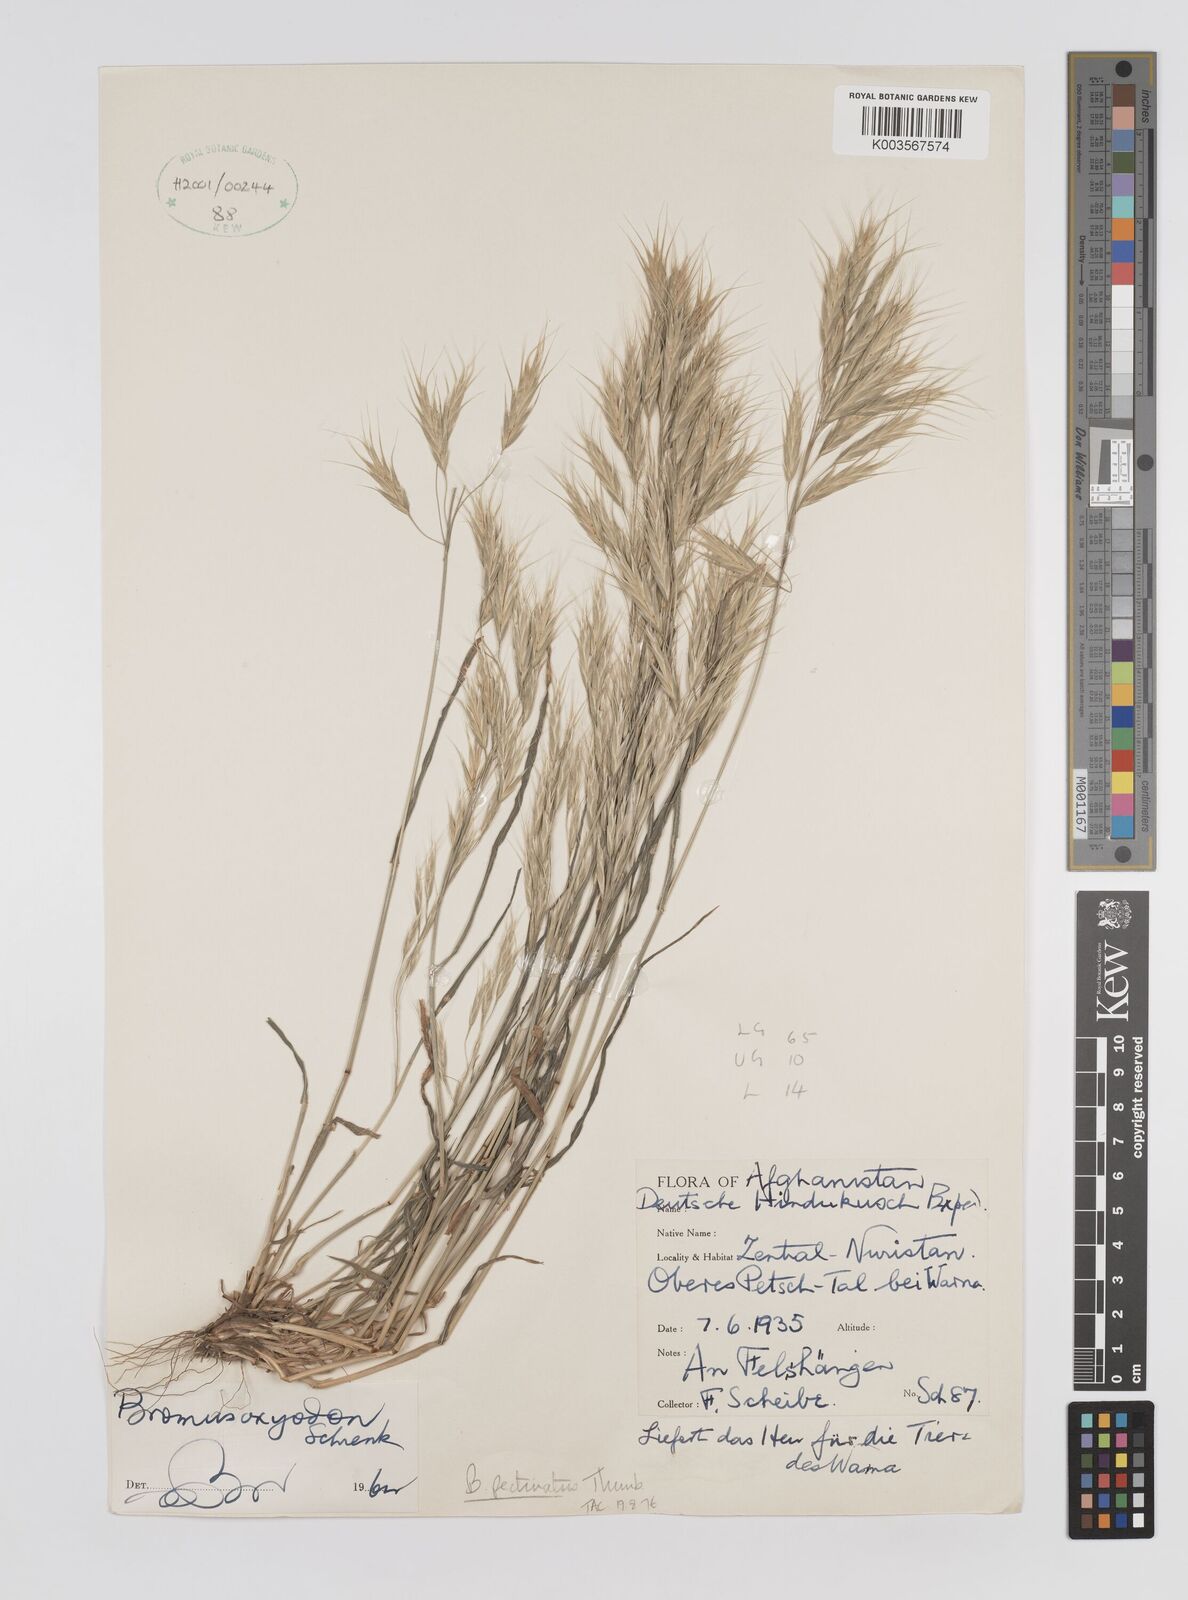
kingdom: Plantae
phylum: Tracheophyta
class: Liliopsida
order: Poales
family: Poaceae
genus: Bromus
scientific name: Bromus pectinatus
